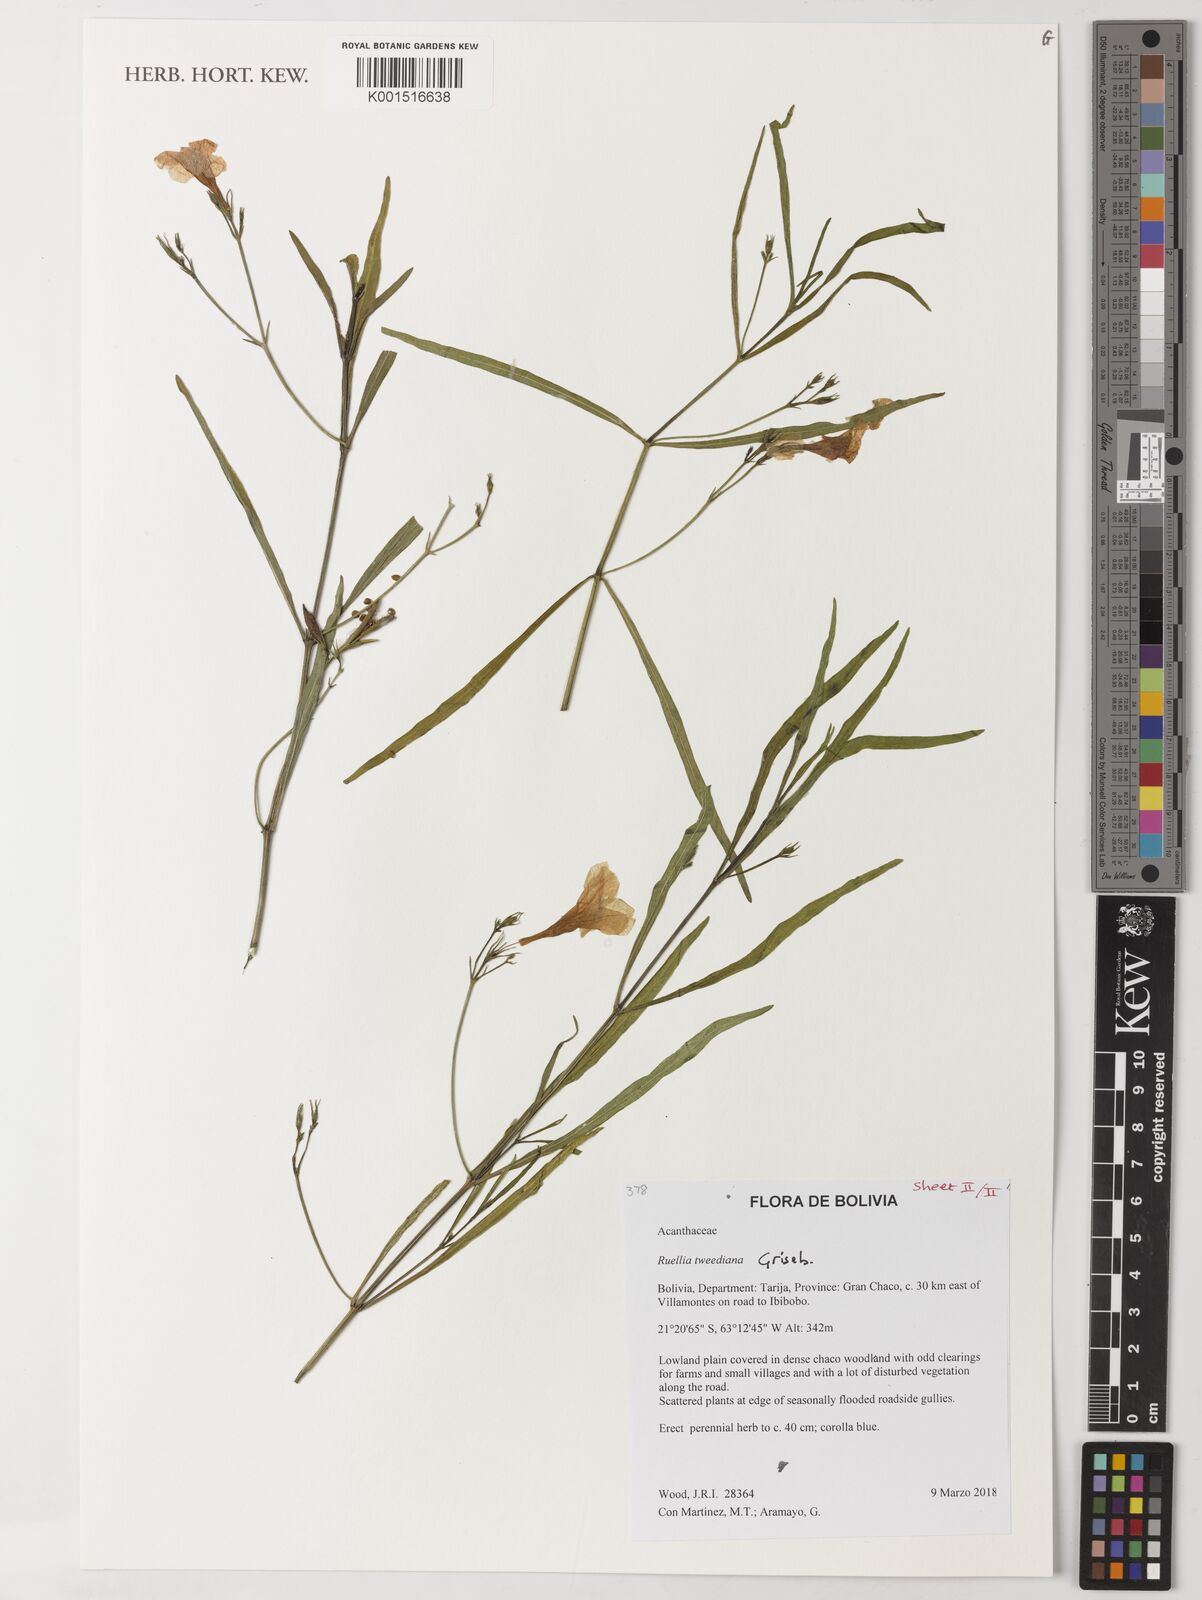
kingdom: Plantae
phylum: Tracheophyta
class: Magnoliopsida
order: Lamiales
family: Acanthaceae
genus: Ruellia
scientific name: Ruellia simplex
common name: Softseed wild petunia
